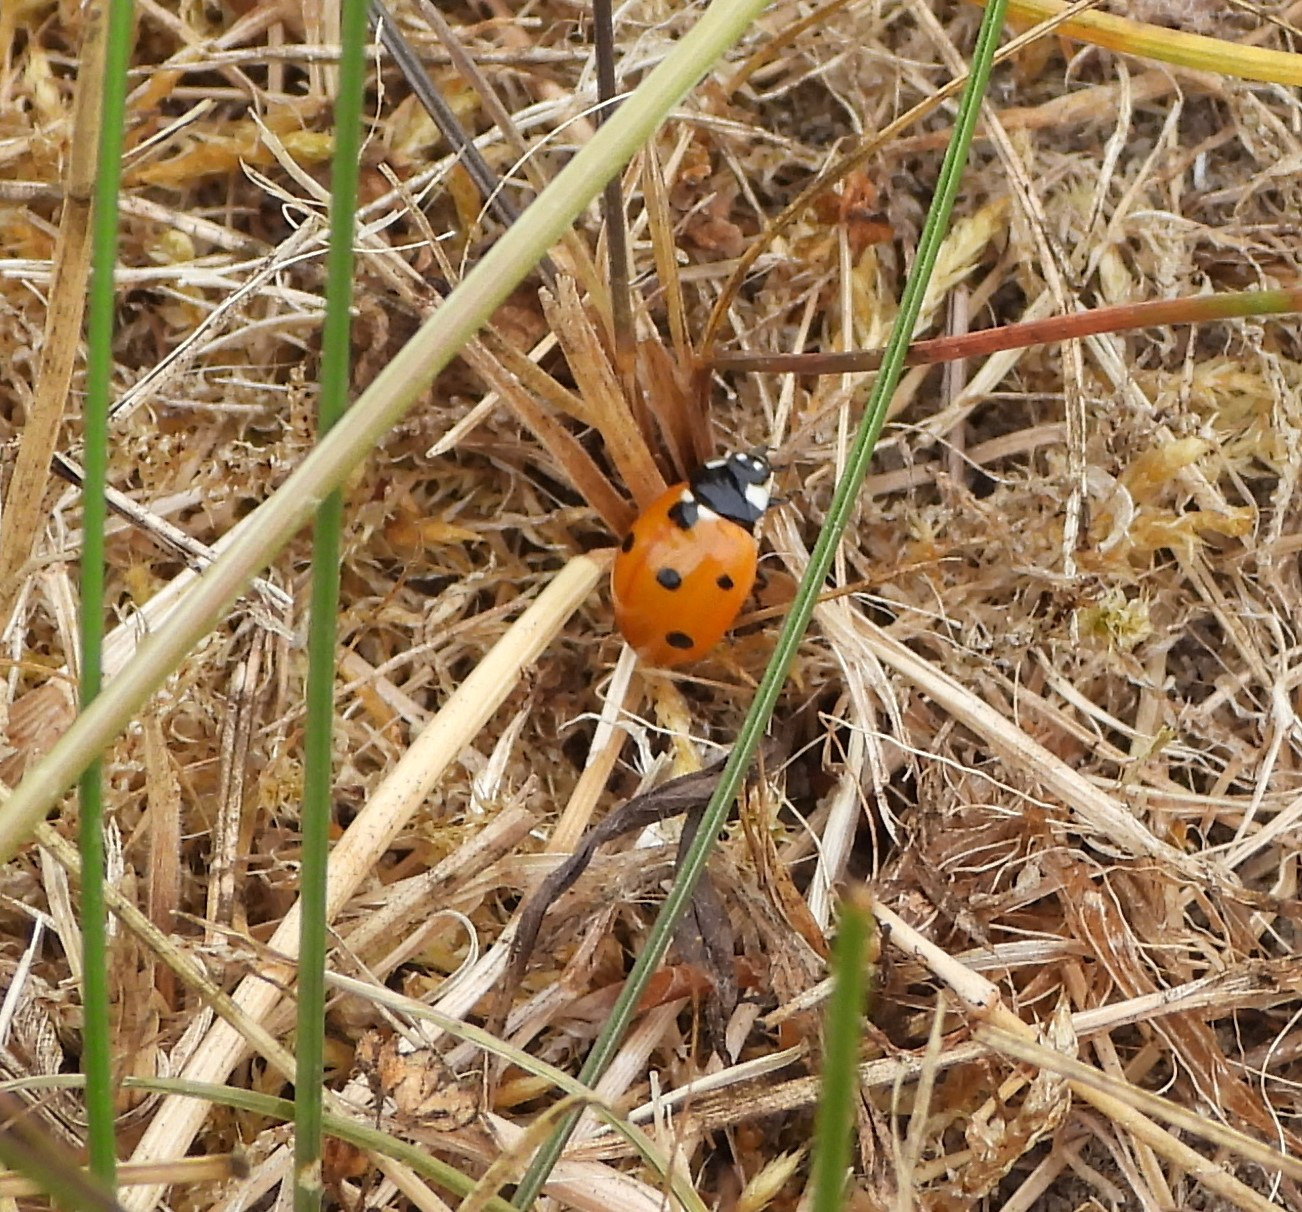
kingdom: Animalia
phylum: Arthropoda
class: Insecta
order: Coleoptera
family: Coccinellidae
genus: Coccinella
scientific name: Coccinella septempunctata
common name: Syvplettet mariehøne
